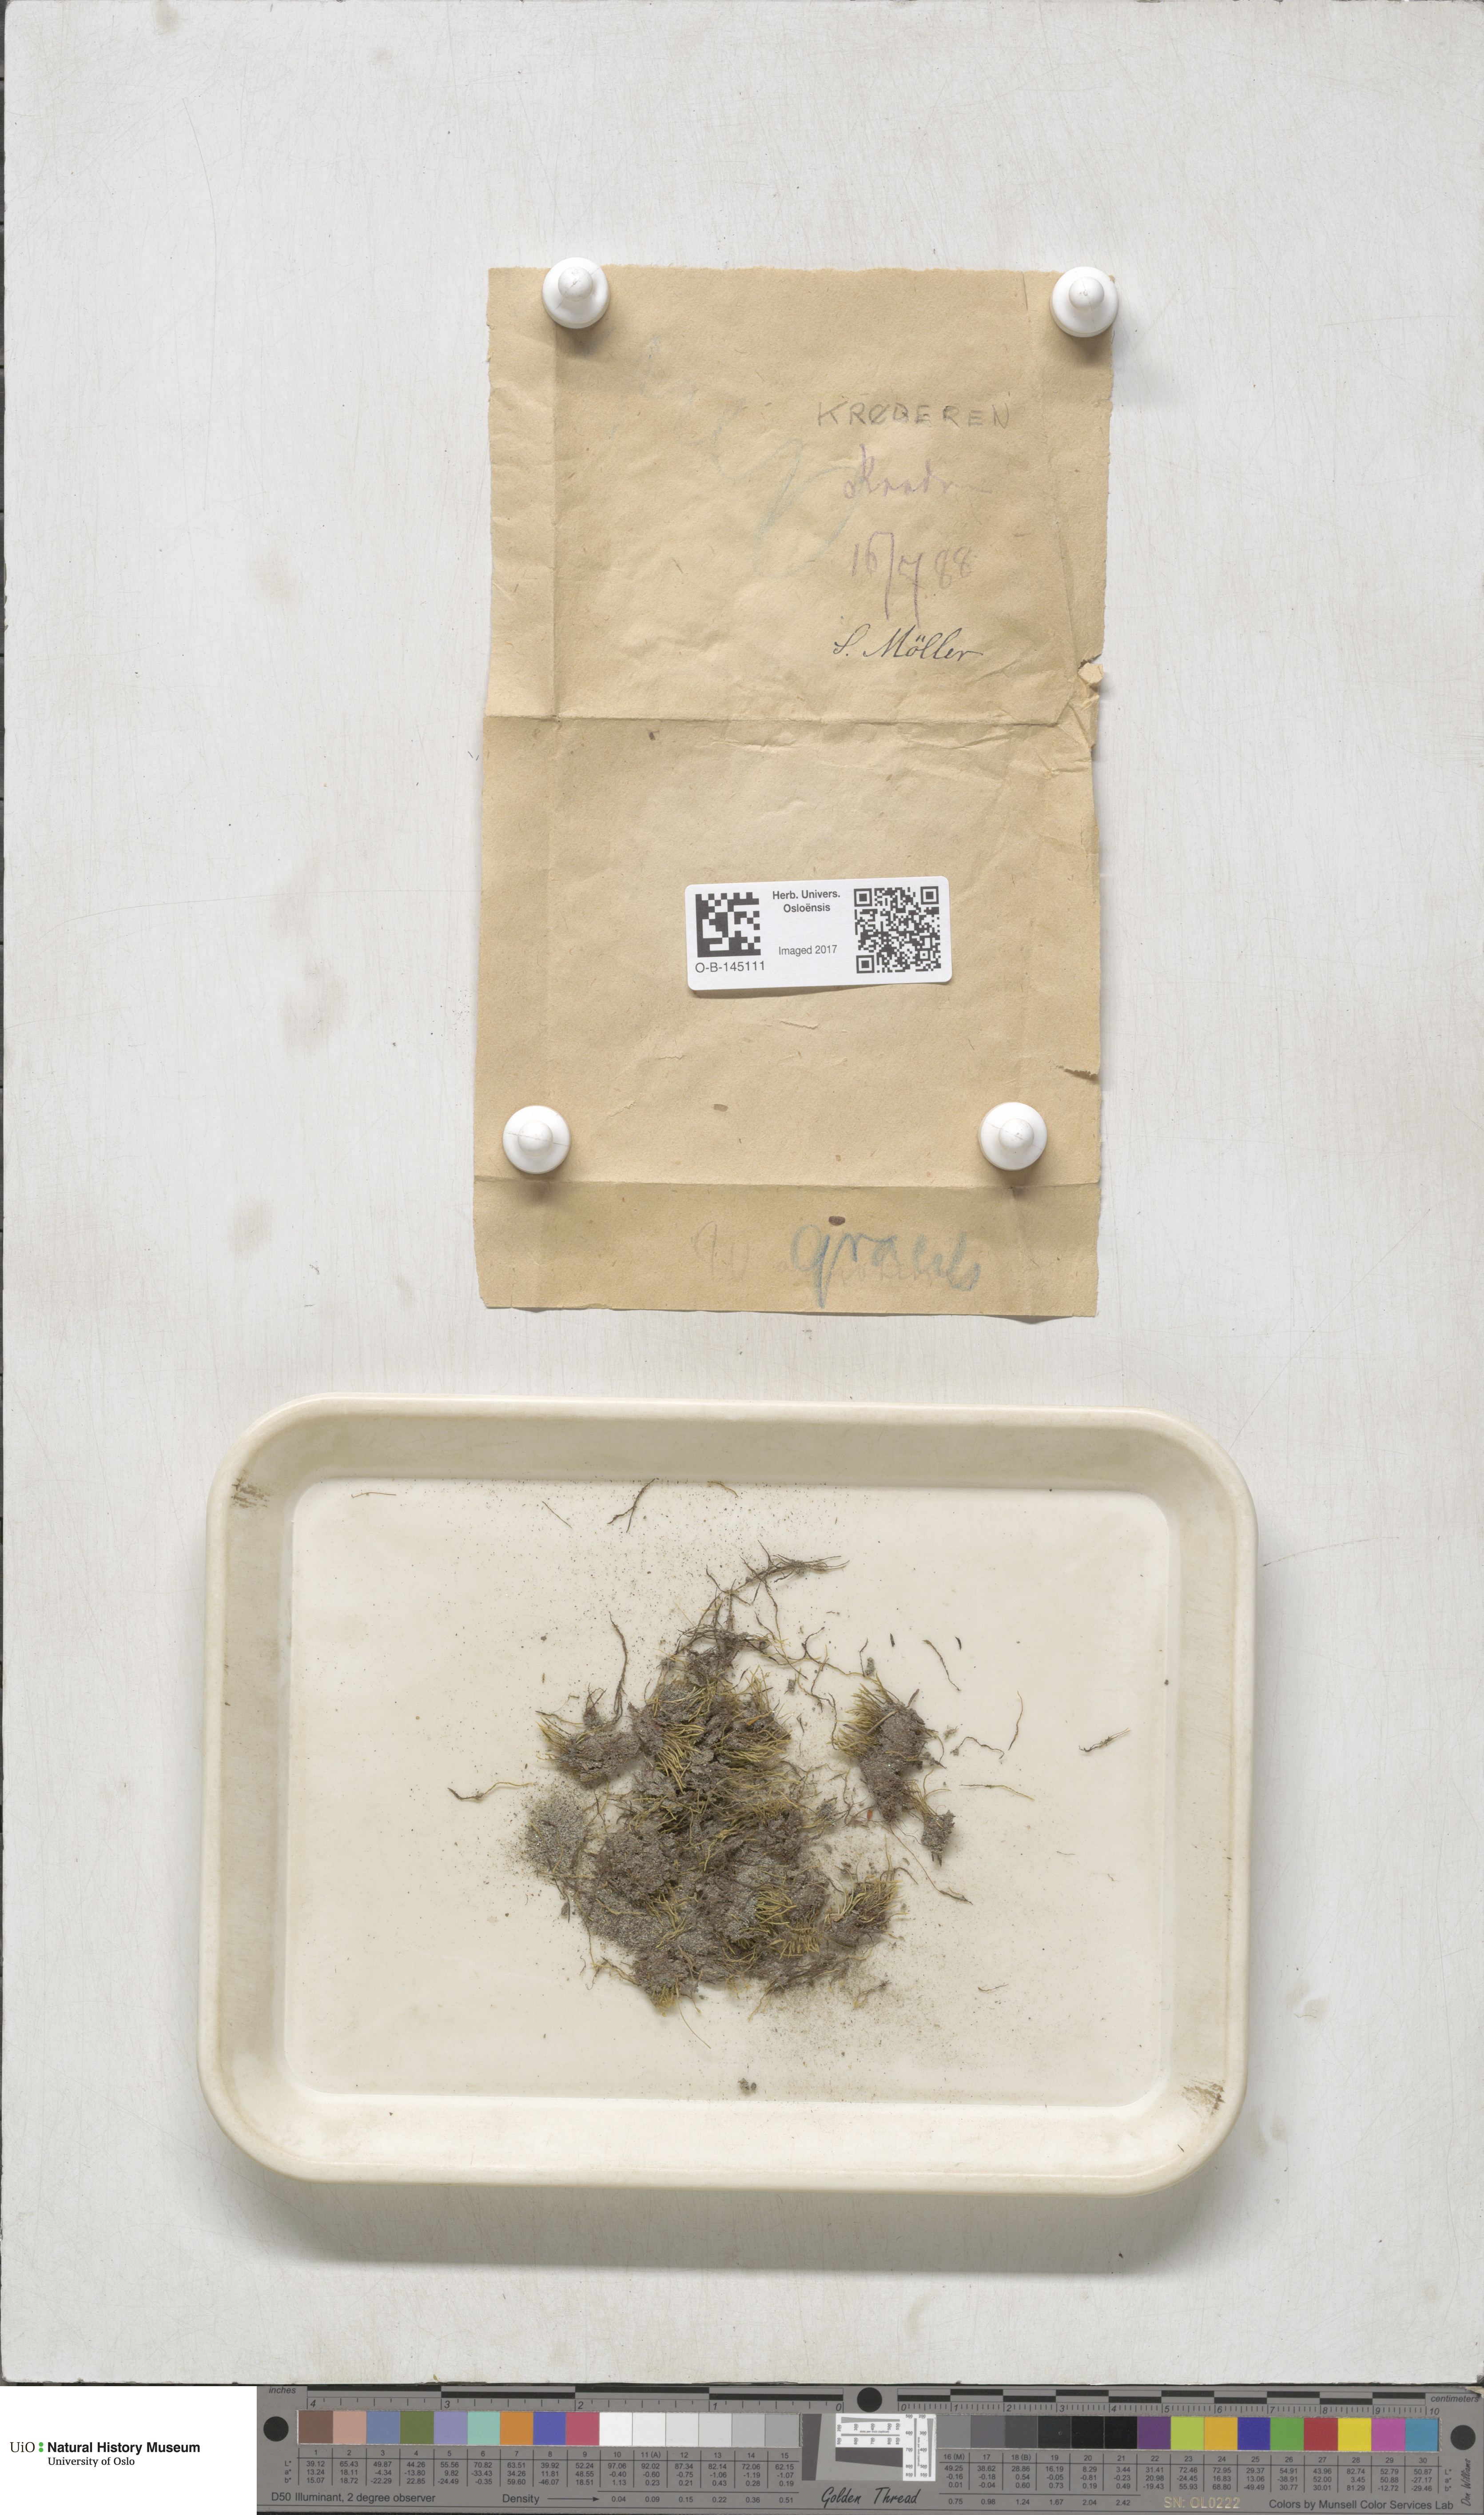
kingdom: Plantae
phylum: Bryophyta
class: Bryopsida
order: Bryales
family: Mniaceae
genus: Pohlia
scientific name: Pohlia filum
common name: Slender nodding moss
